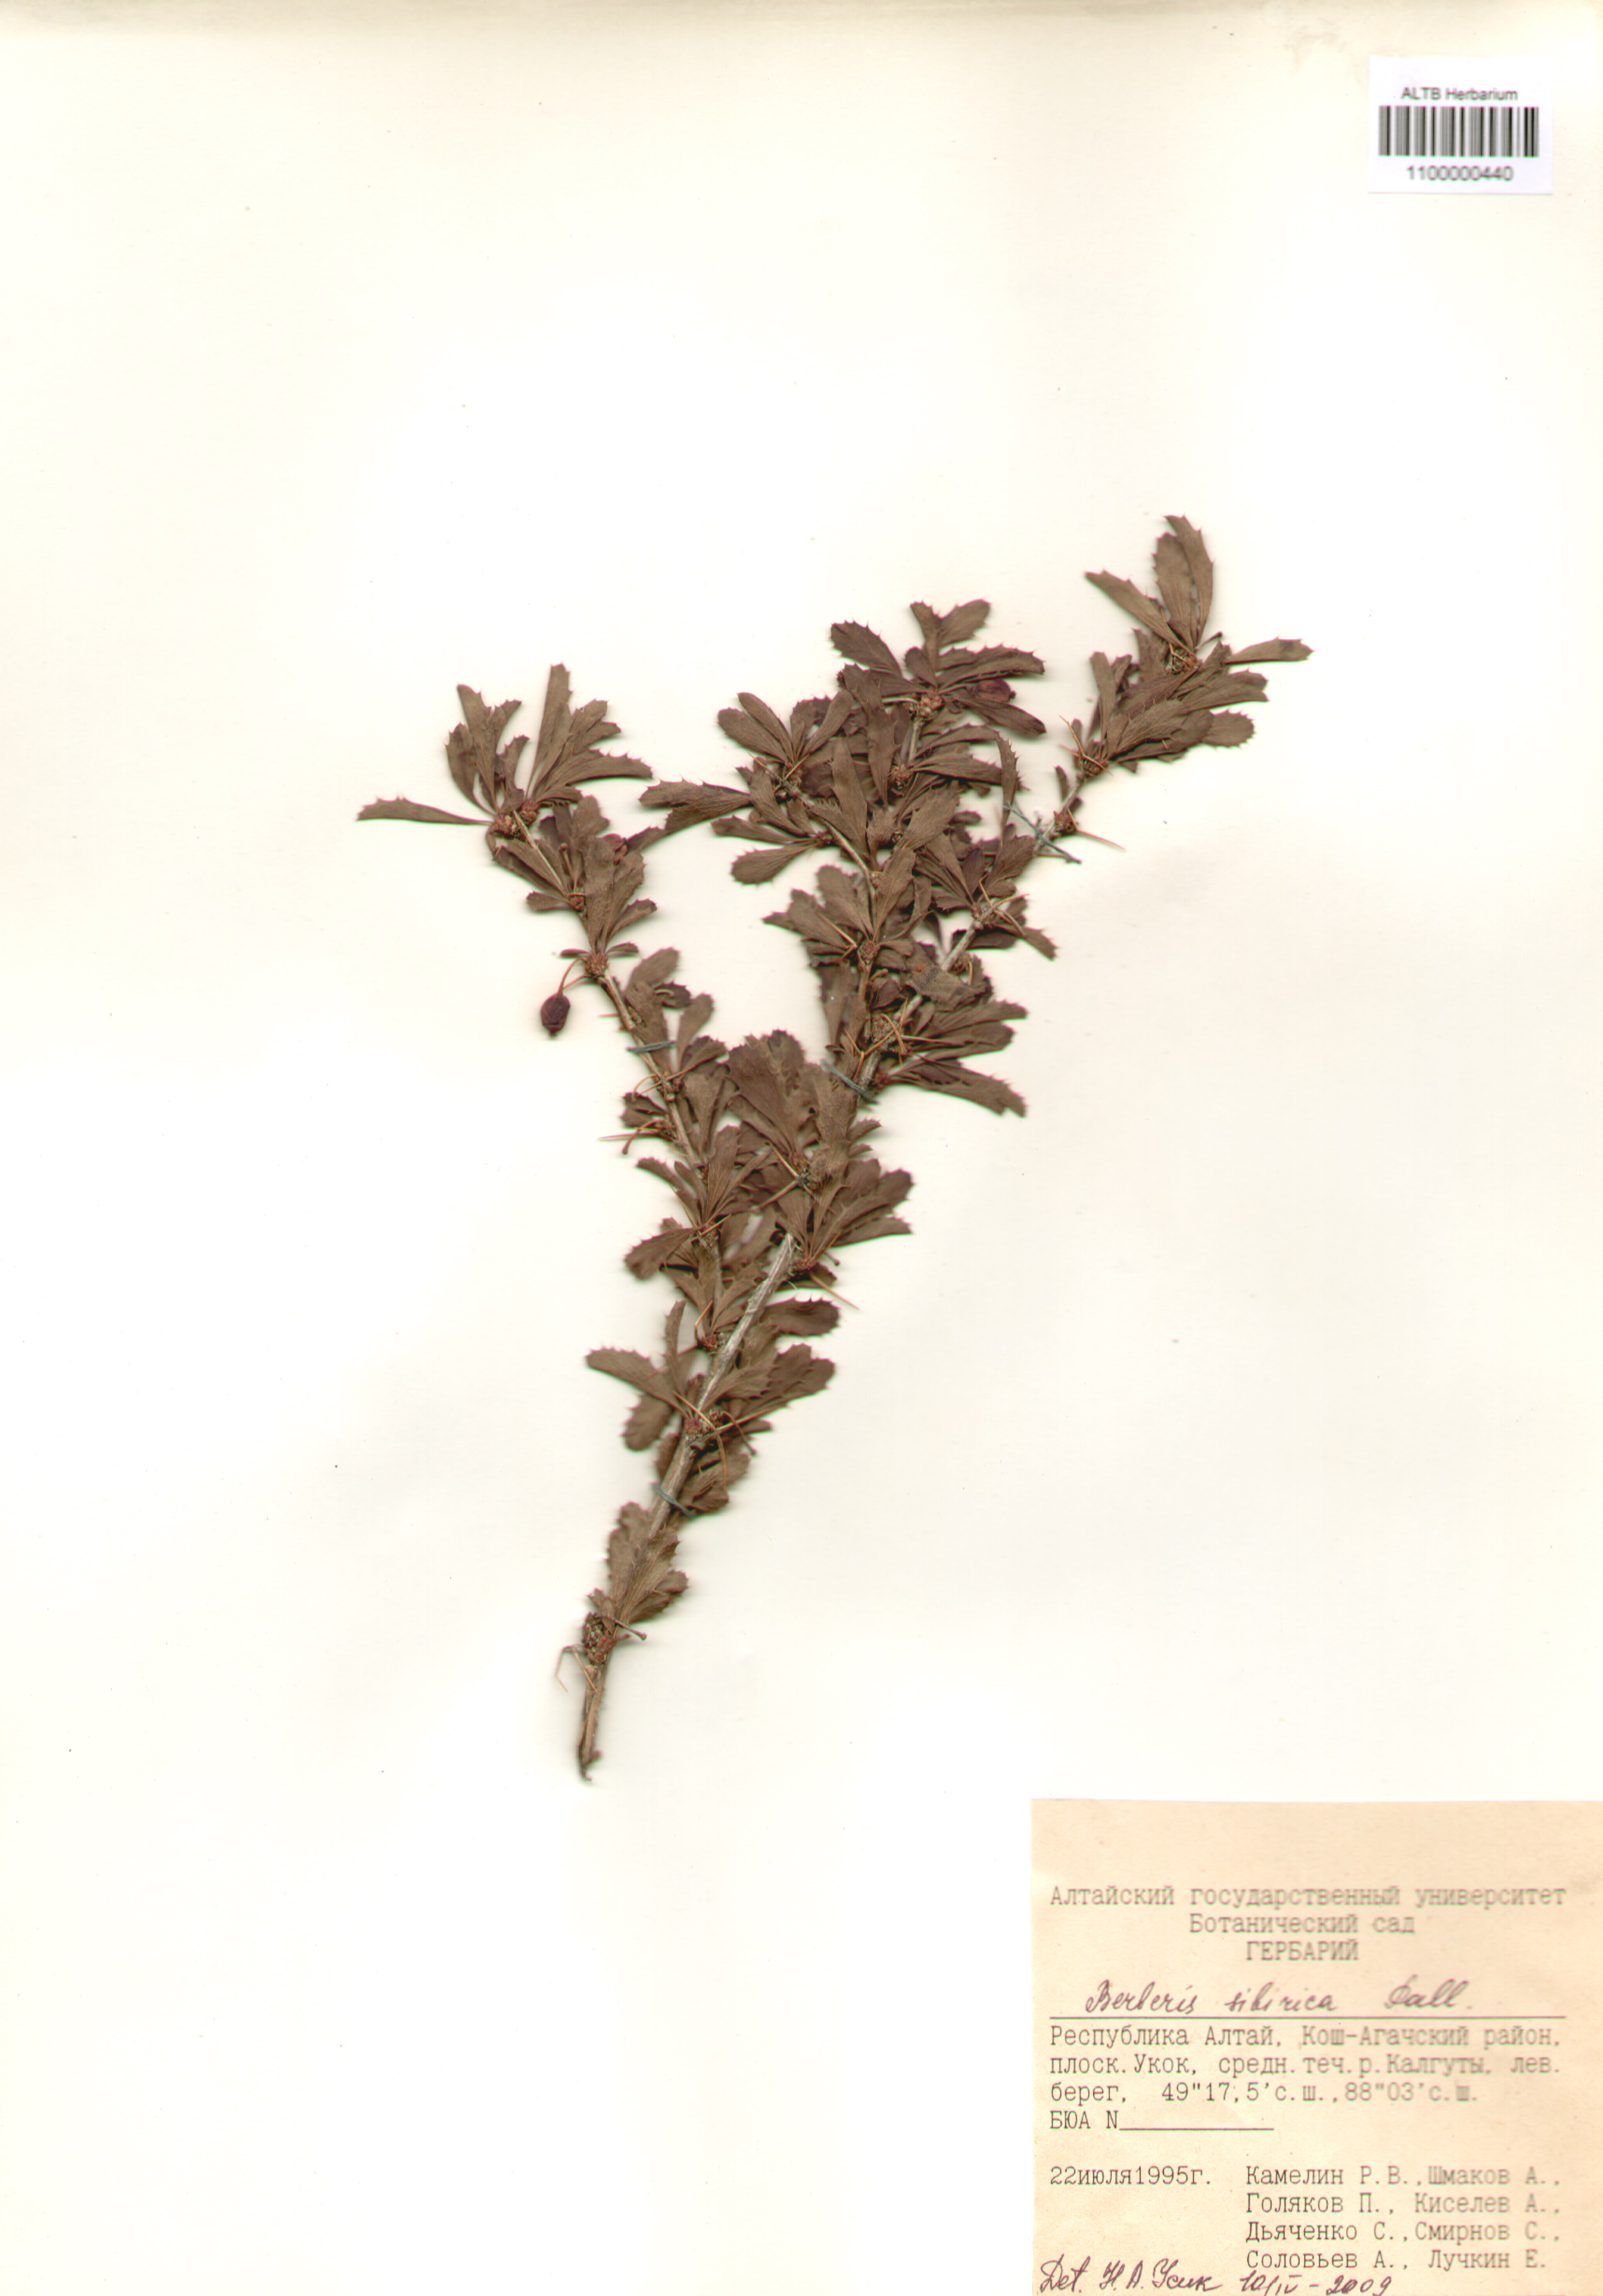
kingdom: Plantae
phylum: Tracheophyta
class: Magnoliopsida
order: Ranunculales
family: Berberidaceae
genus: Berberis
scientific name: Berberis sibirica
